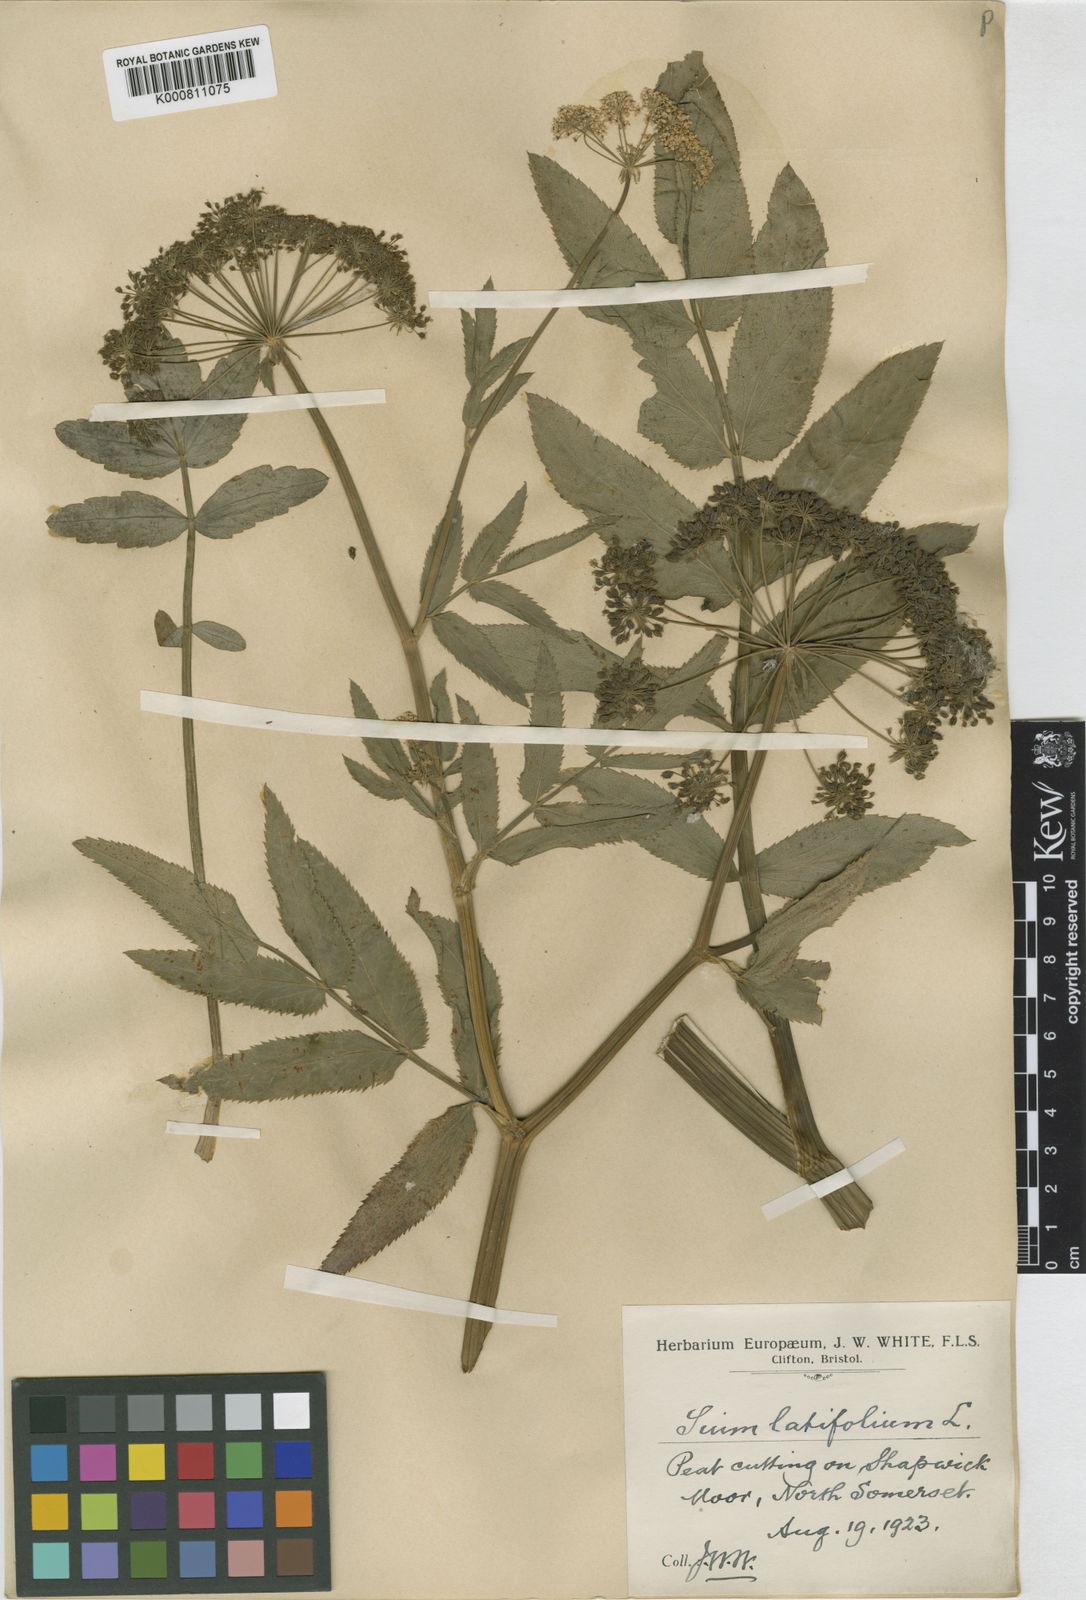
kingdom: Plantae
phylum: Tracheophyta
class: Magnoliopsida
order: Apiales
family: Apiaceae
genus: Sium
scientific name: Sium latifolium
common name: Greater water-parsnip
